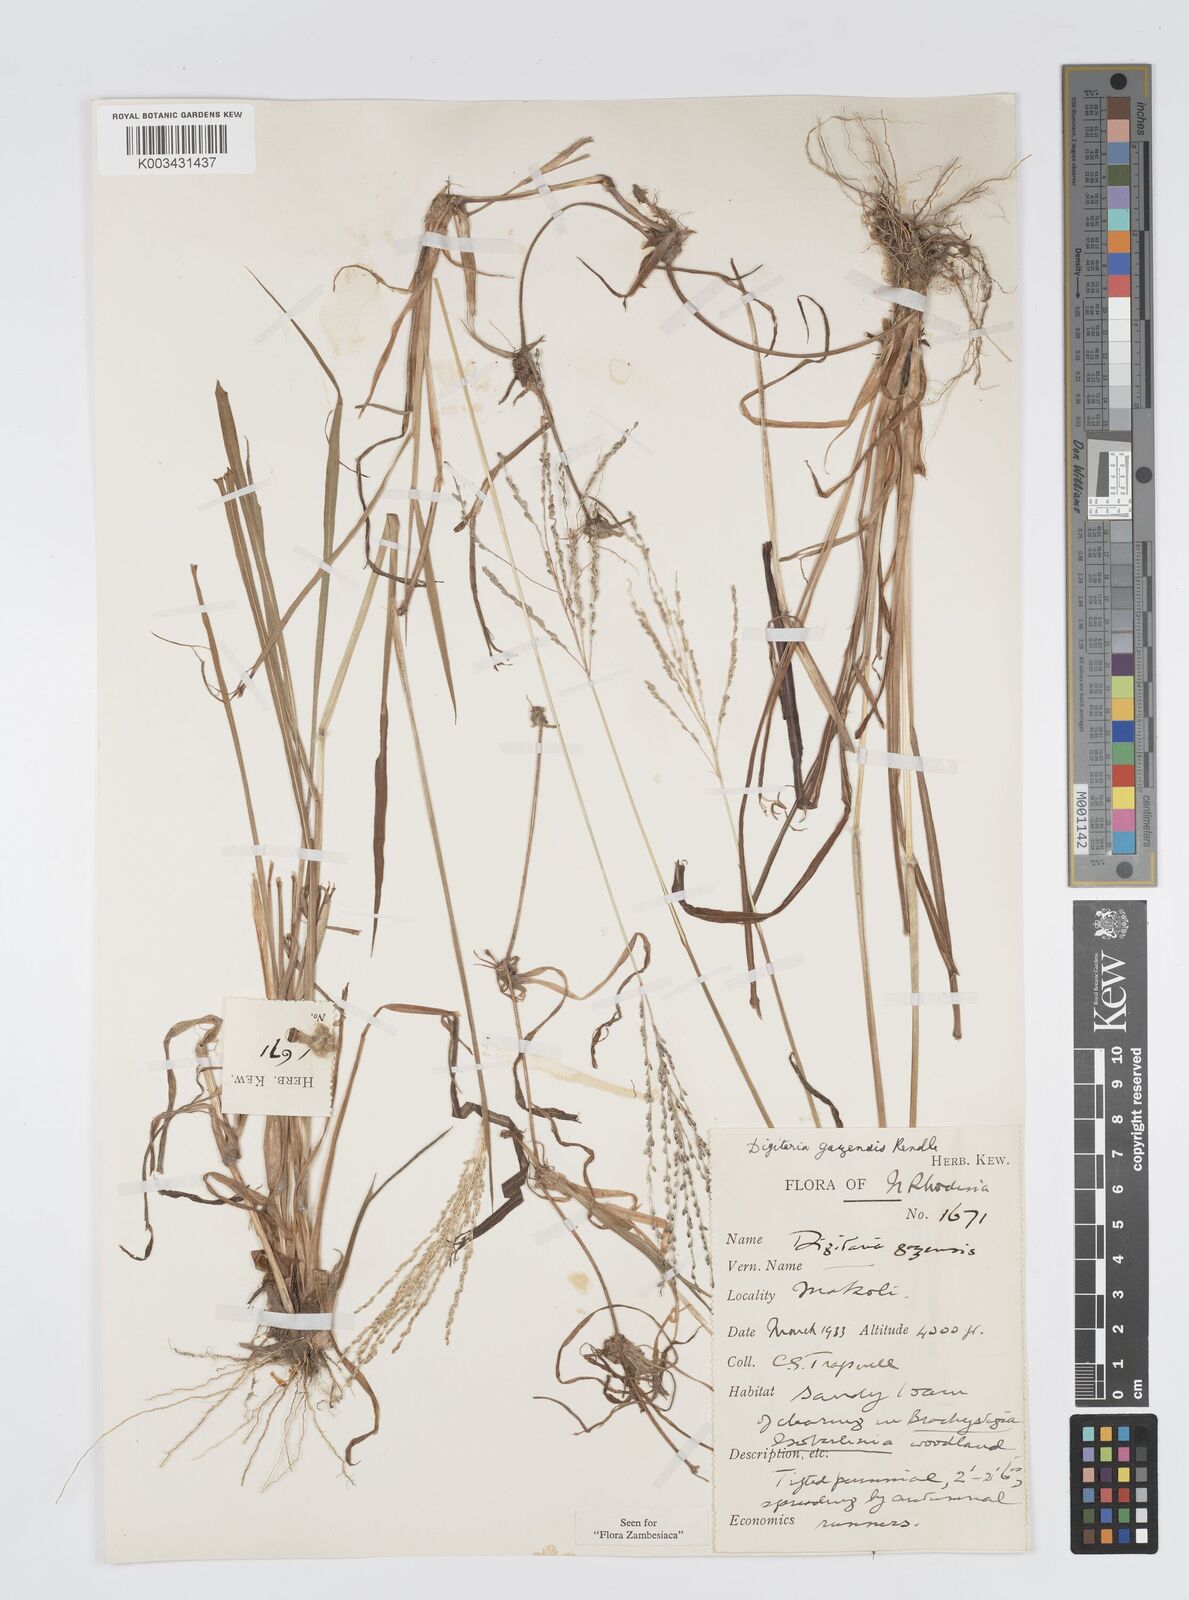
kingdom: Plantae
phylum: Tracheophyta
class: Liliopsida
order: Poales
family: Poaceae
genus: Digitaria
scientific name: Digitaria gazensis
